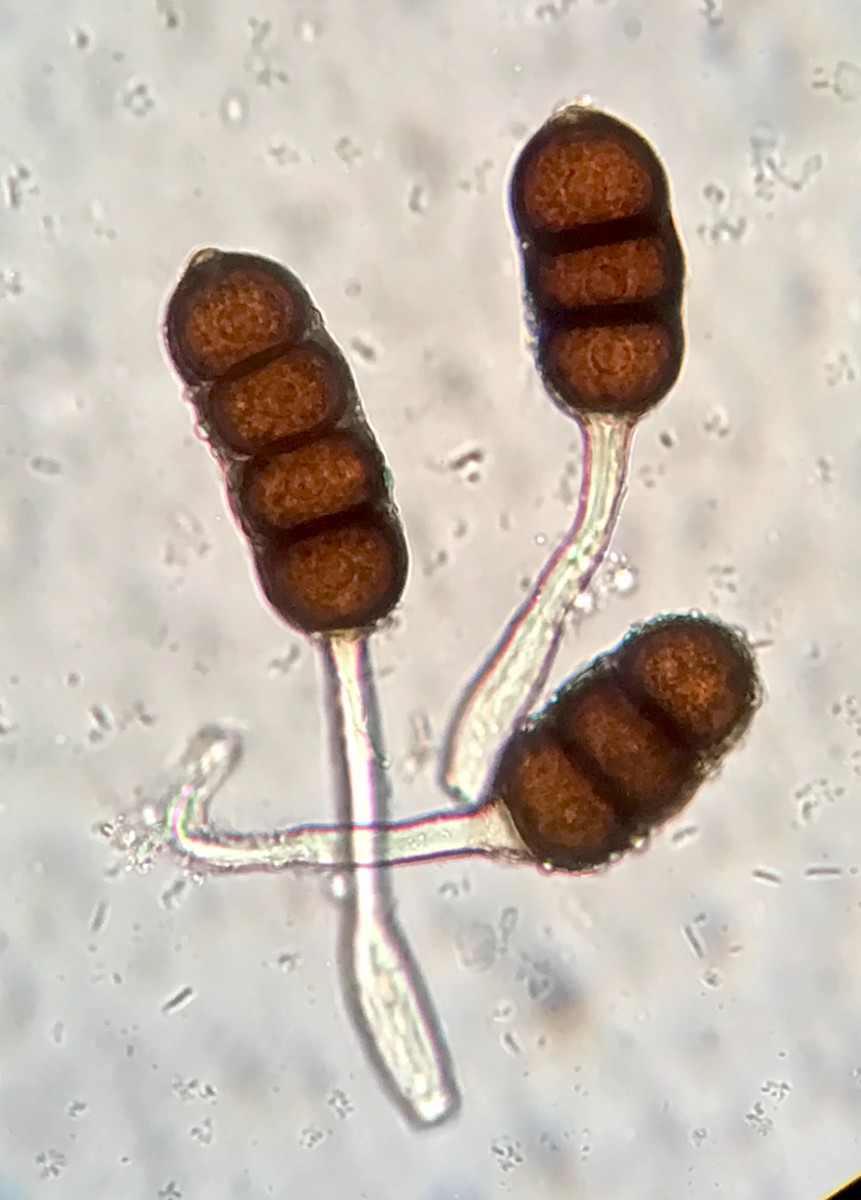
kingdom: Fungi
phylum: Basidiomycota
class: Pucciniomycetes
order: Pucciniales
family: Phragmidiaceae
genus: Phragmidium
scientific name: Phragmidium violaceum
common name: violet flercellerust
